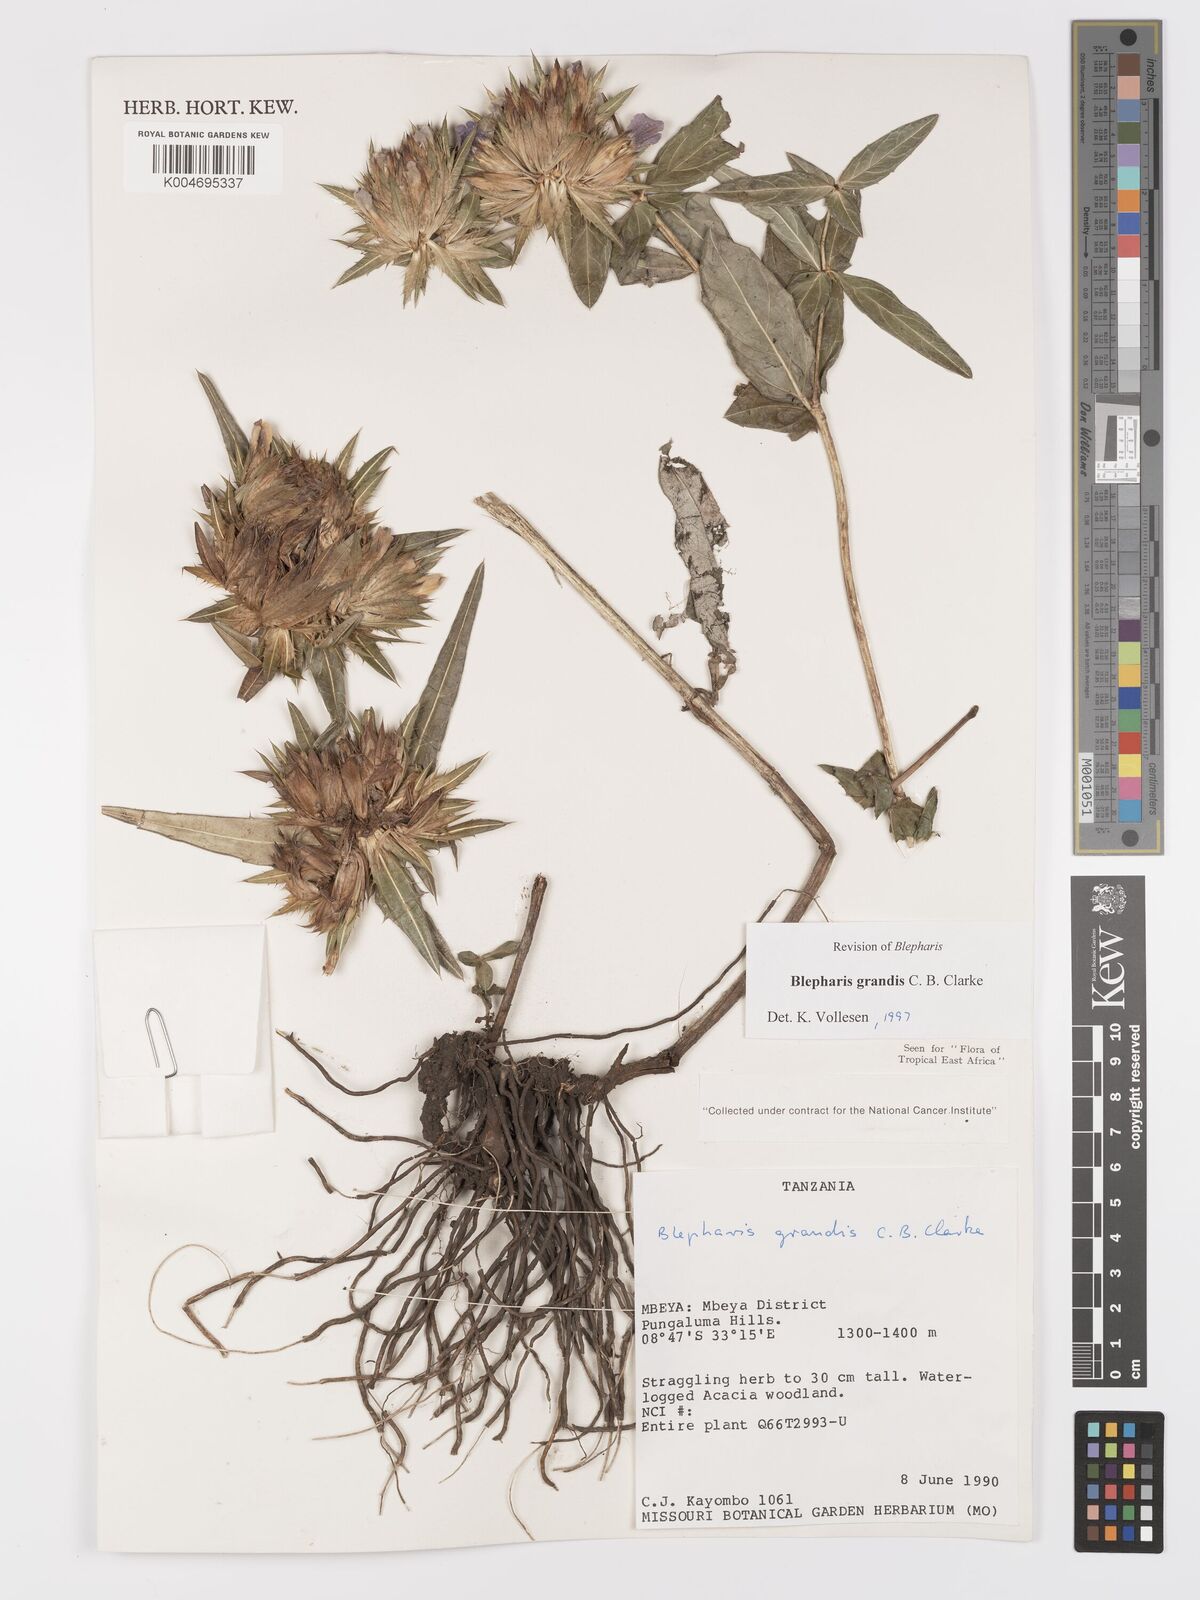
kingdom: Plantae
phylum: Tracheophyta
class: Magnoliopsida
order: Lamiales
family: Acanthaceae
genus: Blepharis
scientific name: Blepharis grandis
